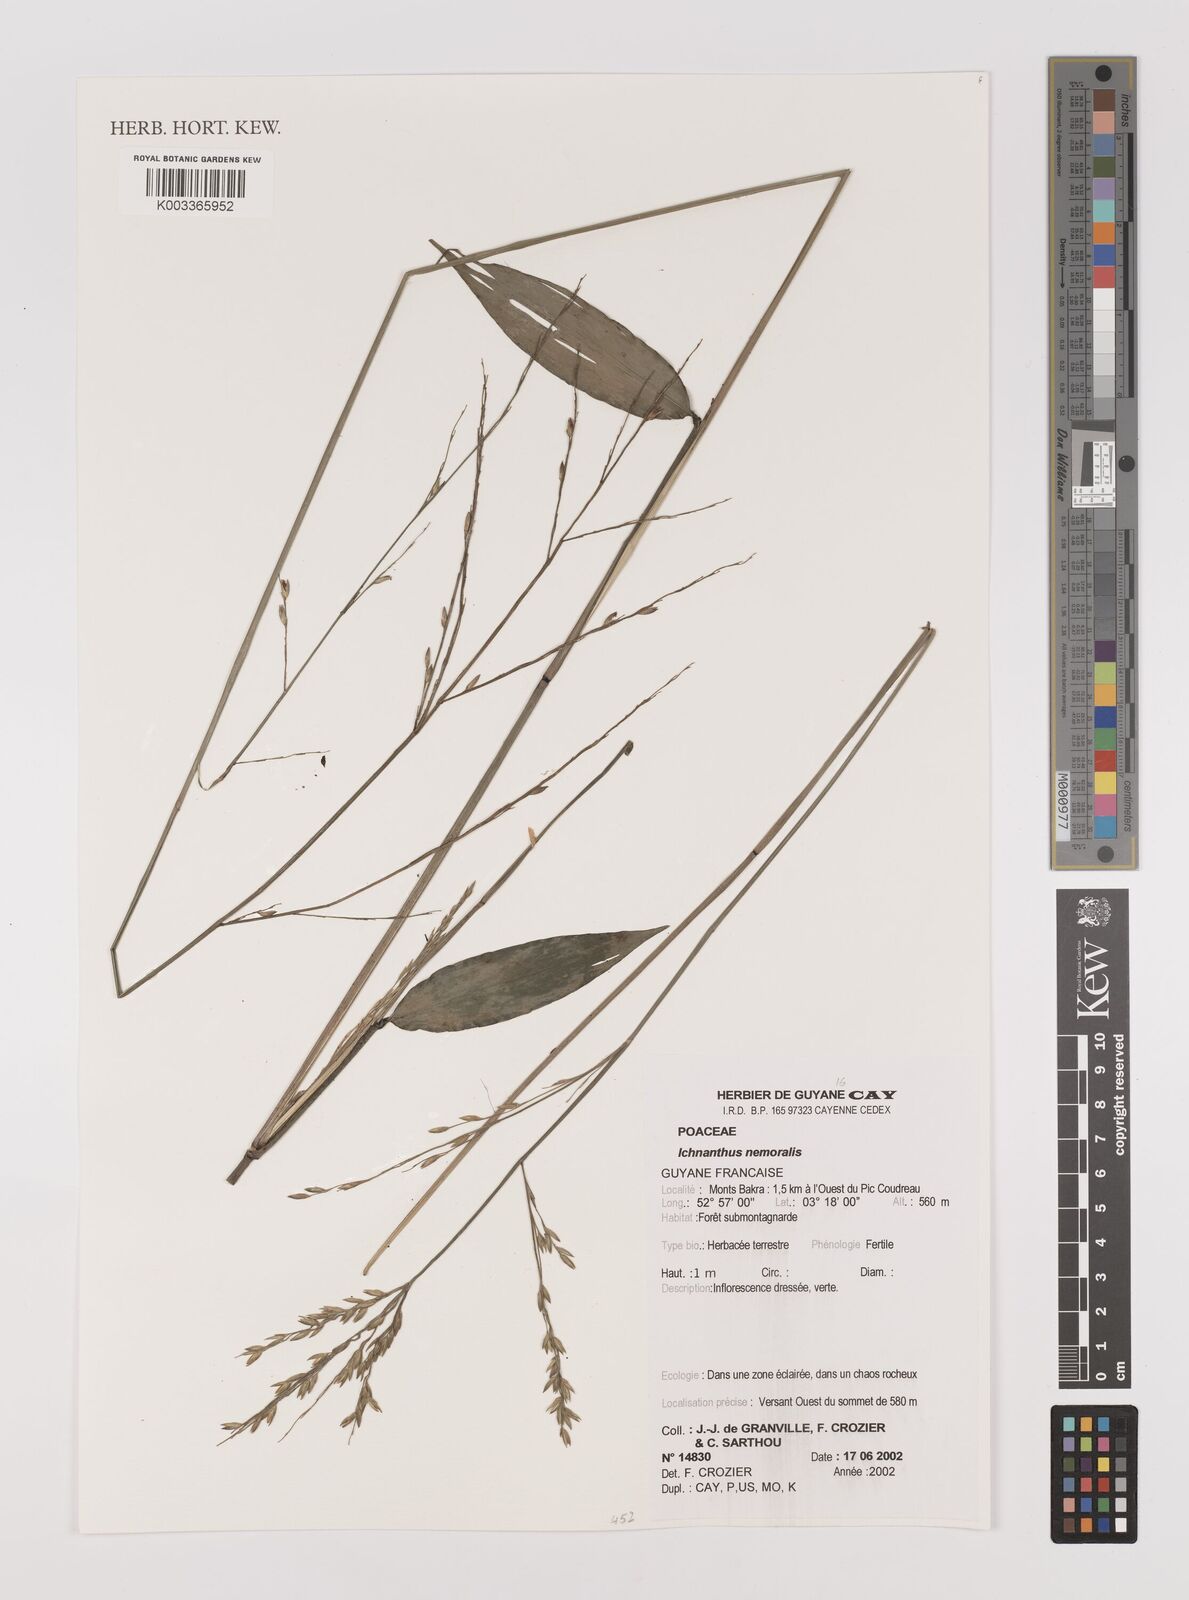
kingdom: Plantae
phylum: Tracheophyta
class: Liliopsida
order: Poales
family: Poaceae
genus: Ichnanthus
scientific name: Ichnanthus nemoralis
